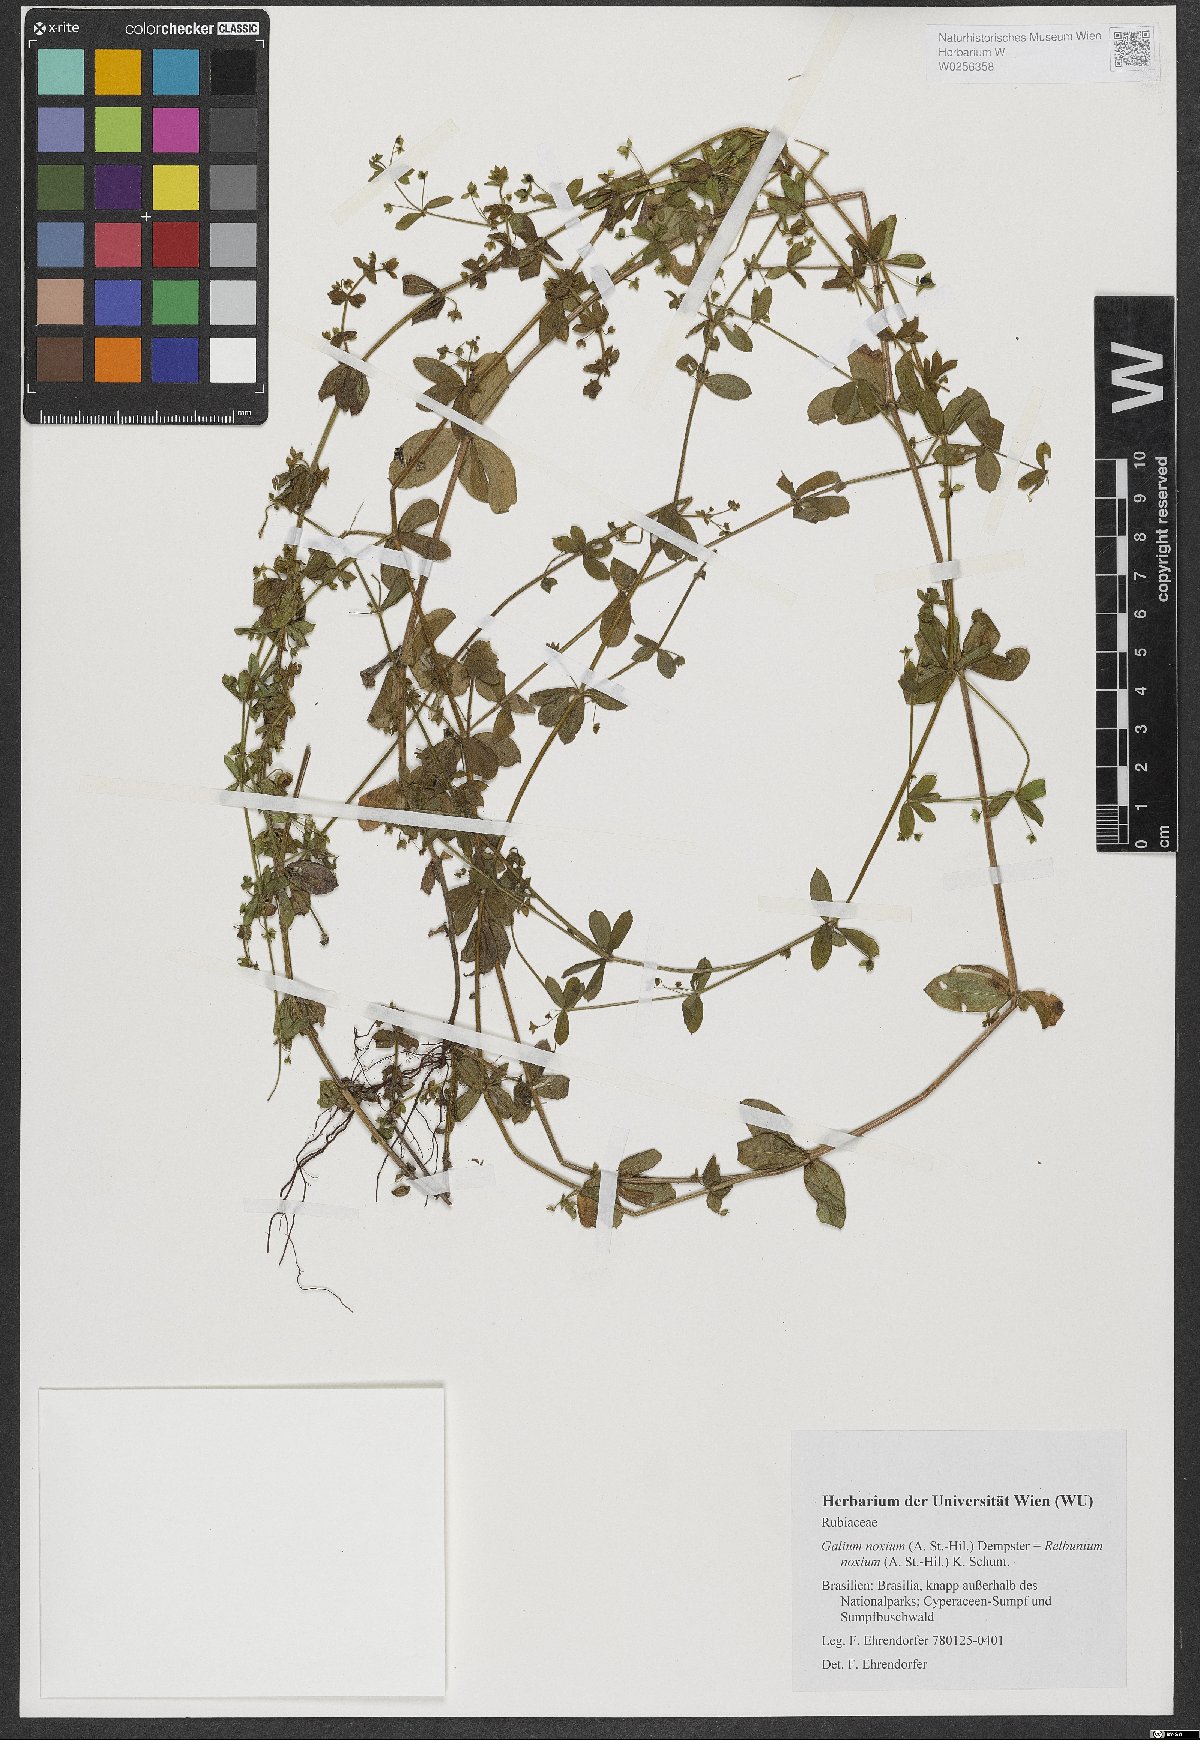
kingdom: Plantae
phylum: Tracheophyta
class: Magnoliopsida
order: Gentianales
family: Rubiaceae
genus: Galium
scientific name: Galium noxium
